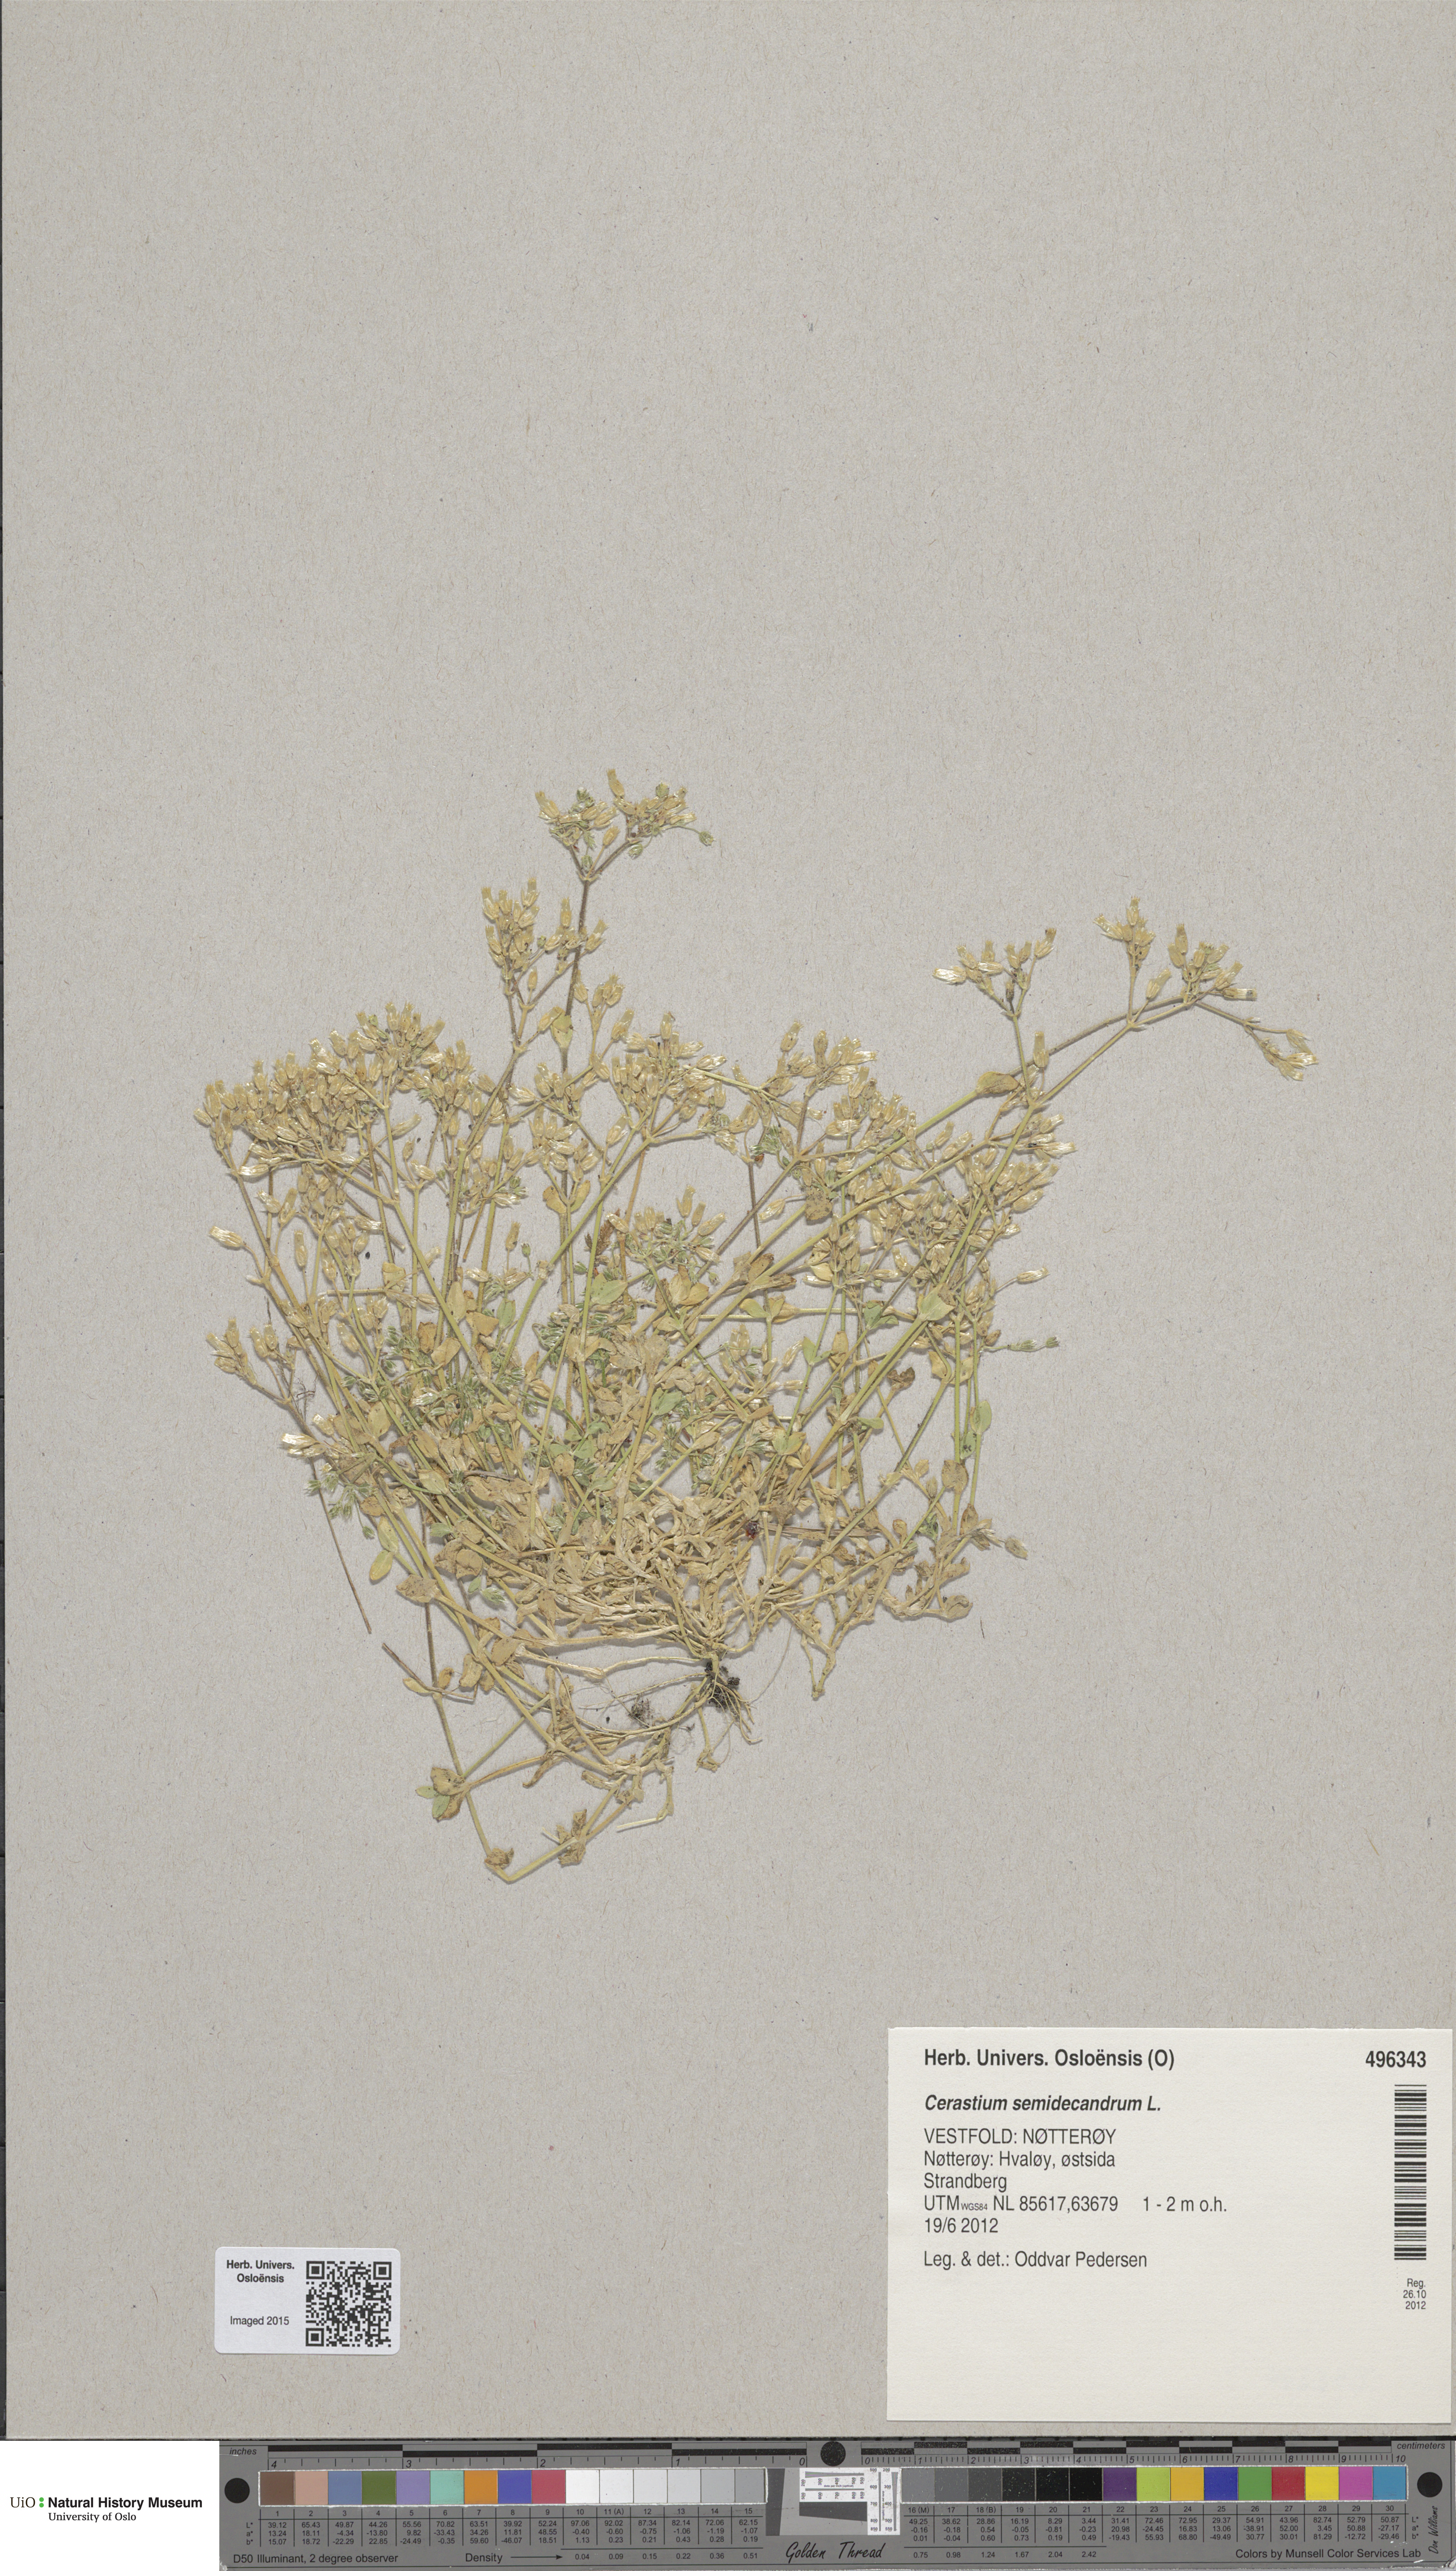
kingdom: Plantae
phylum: Tracheophyta
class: Magnoliopsida
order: Caryophyllales
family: Caryophyllaceae
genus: Cerastium
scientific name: Cerastium semidecandrum
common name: Little mouse-ear
